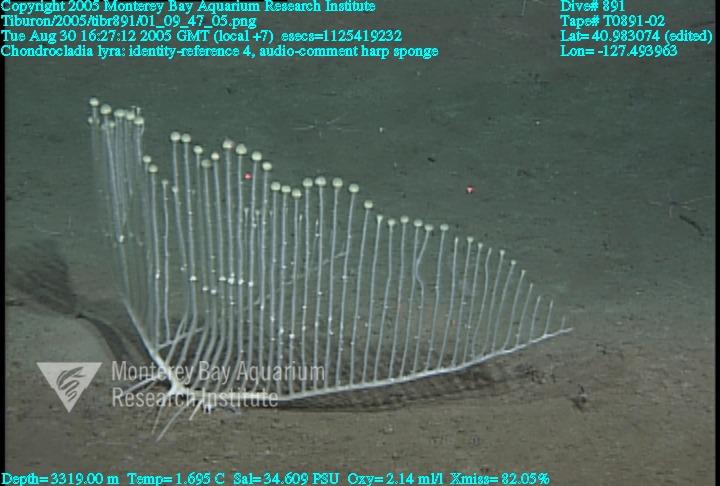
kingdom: Animalia
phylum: Porifera
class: Demospongiae
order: Poecilosclerida
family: Cladorhizidae
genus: Chondrocladia
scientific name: Chondrocladia lyra
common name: Harp sponge
